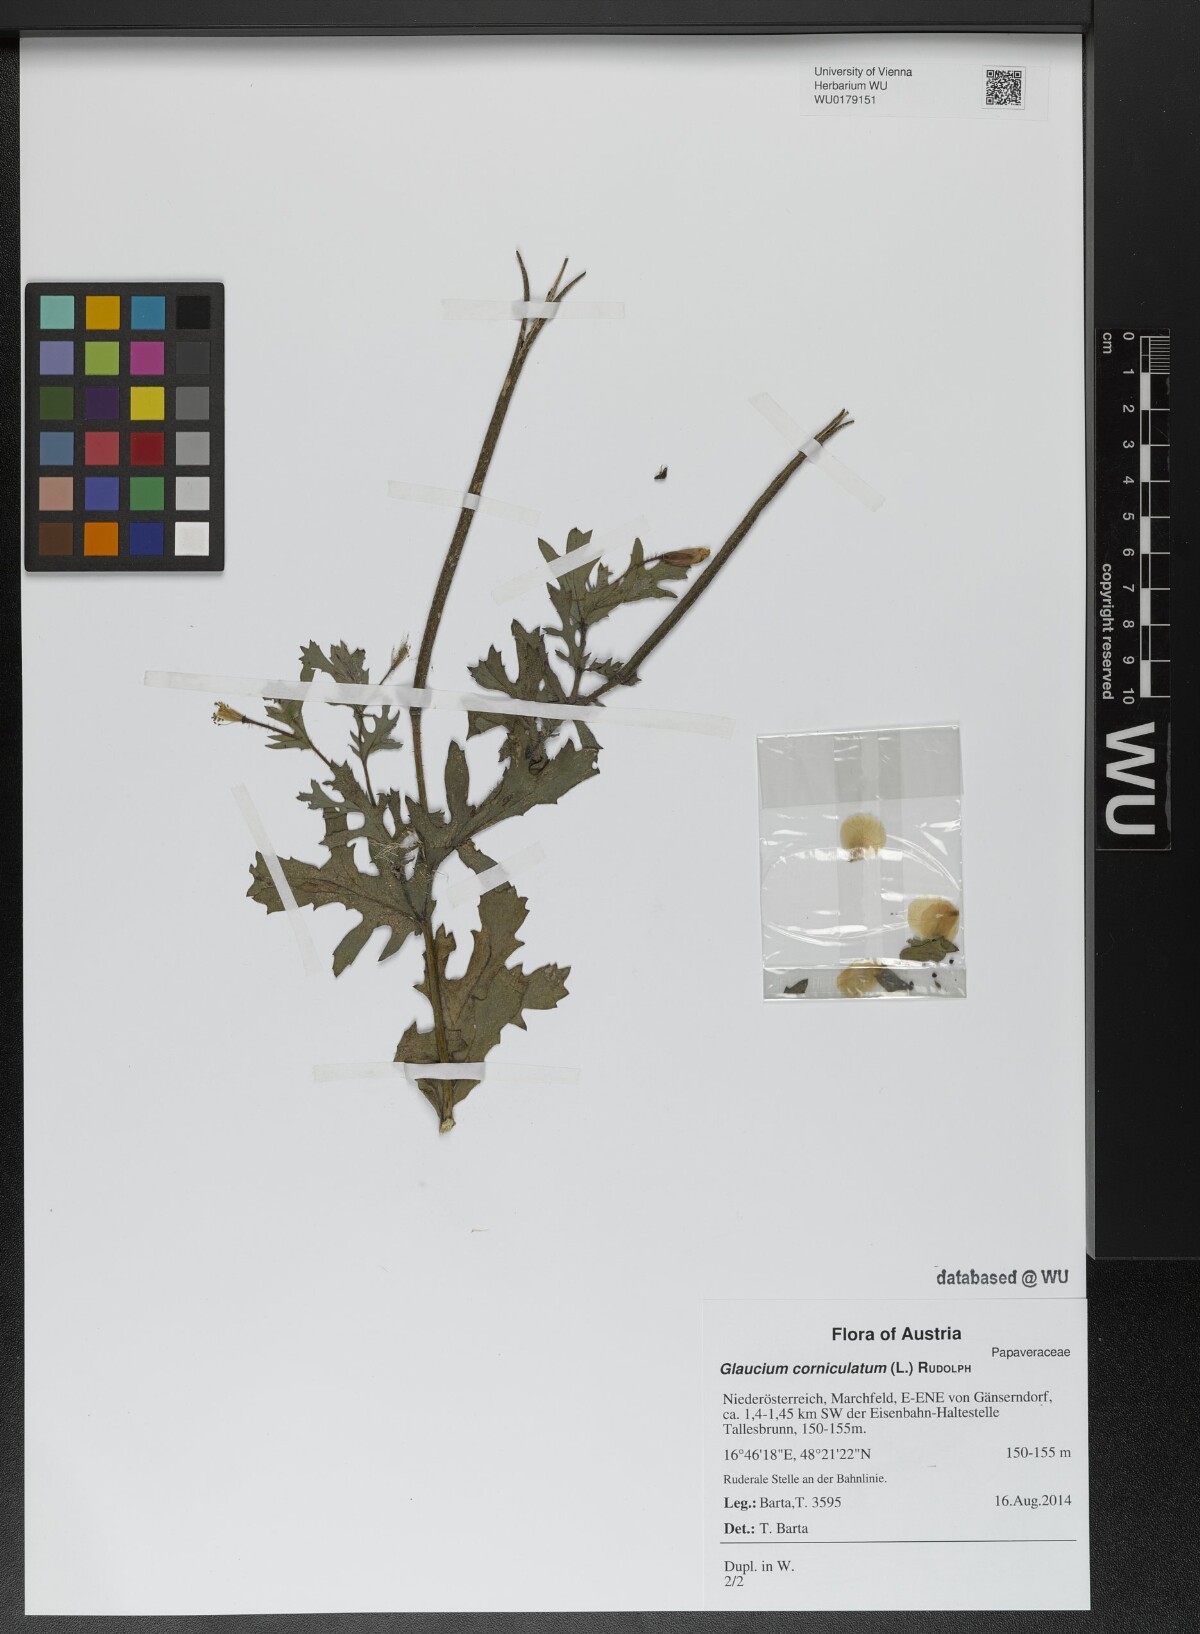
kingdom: Plantae
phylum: Tracheophyta
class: Magnoliopsida
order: Ranunculales
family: Papaveraceae
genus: Glaucium
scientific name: Glaucium corniculatum
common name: Red horned-poppy
